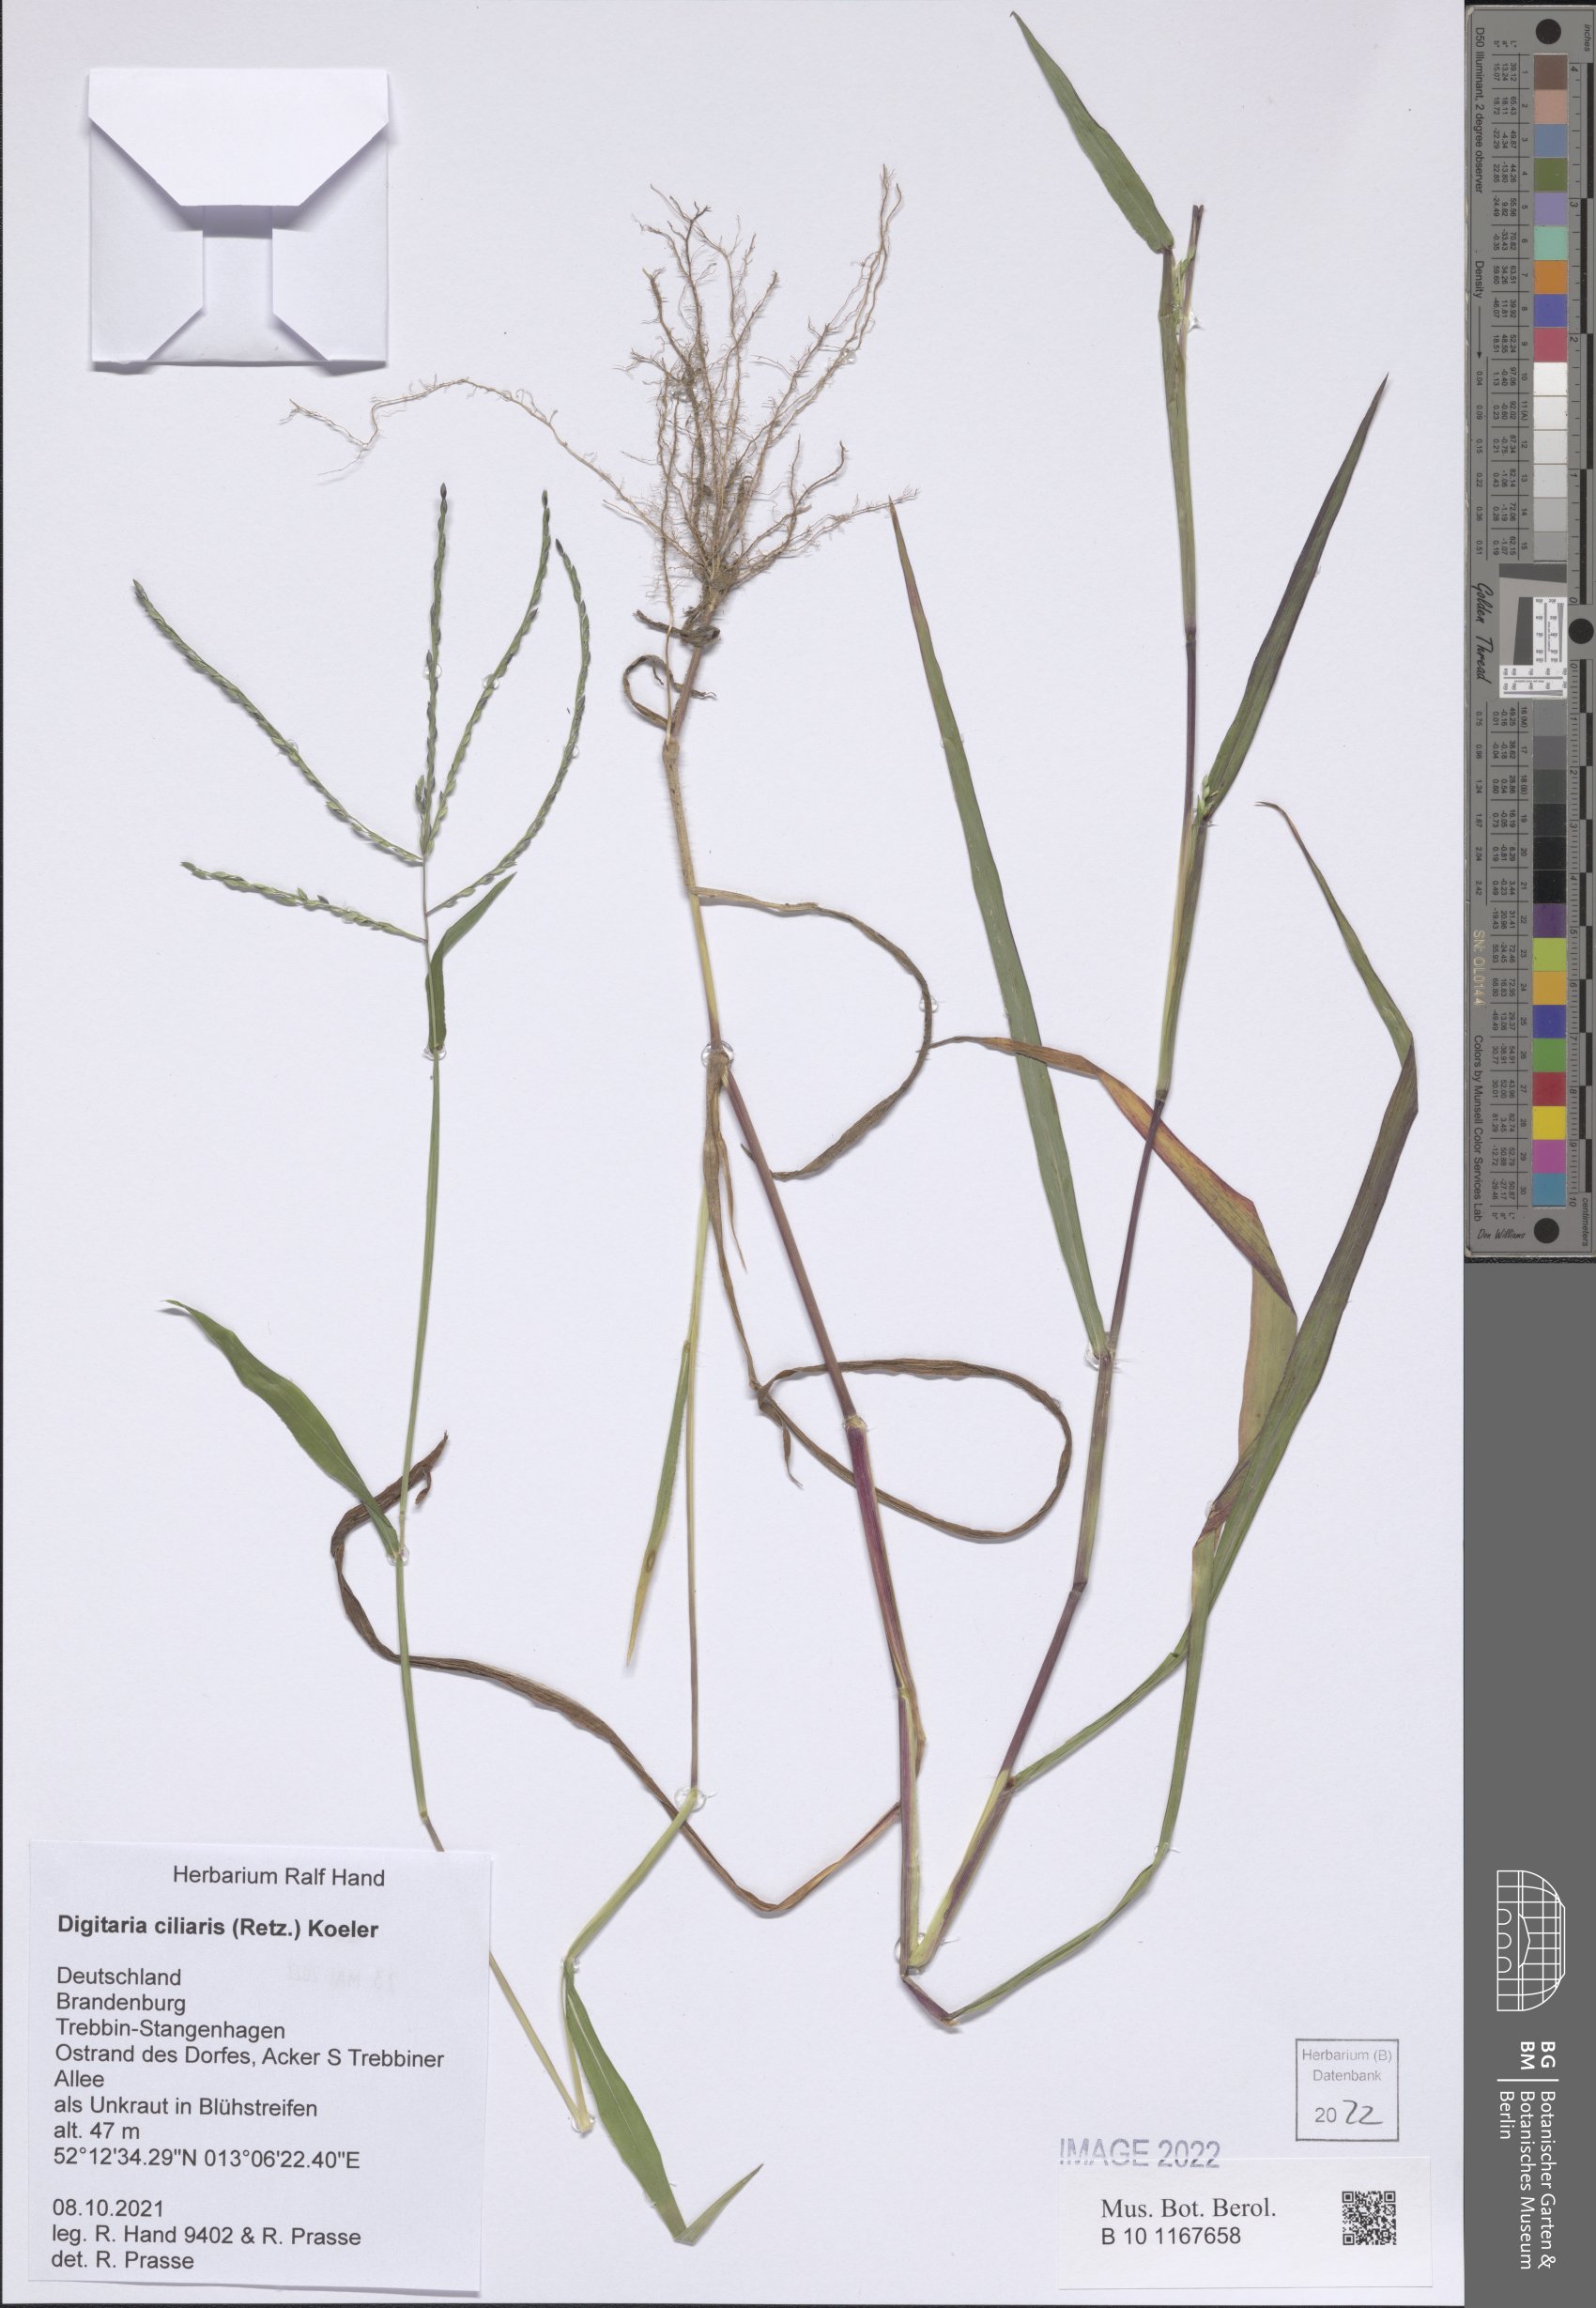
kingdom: Plantae
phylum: Tracheophyta
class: Liliopsida
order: Poales
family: Poaceae
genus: Digitaria
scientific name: Digitaria ciliaris
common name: Tropical finger-grass
